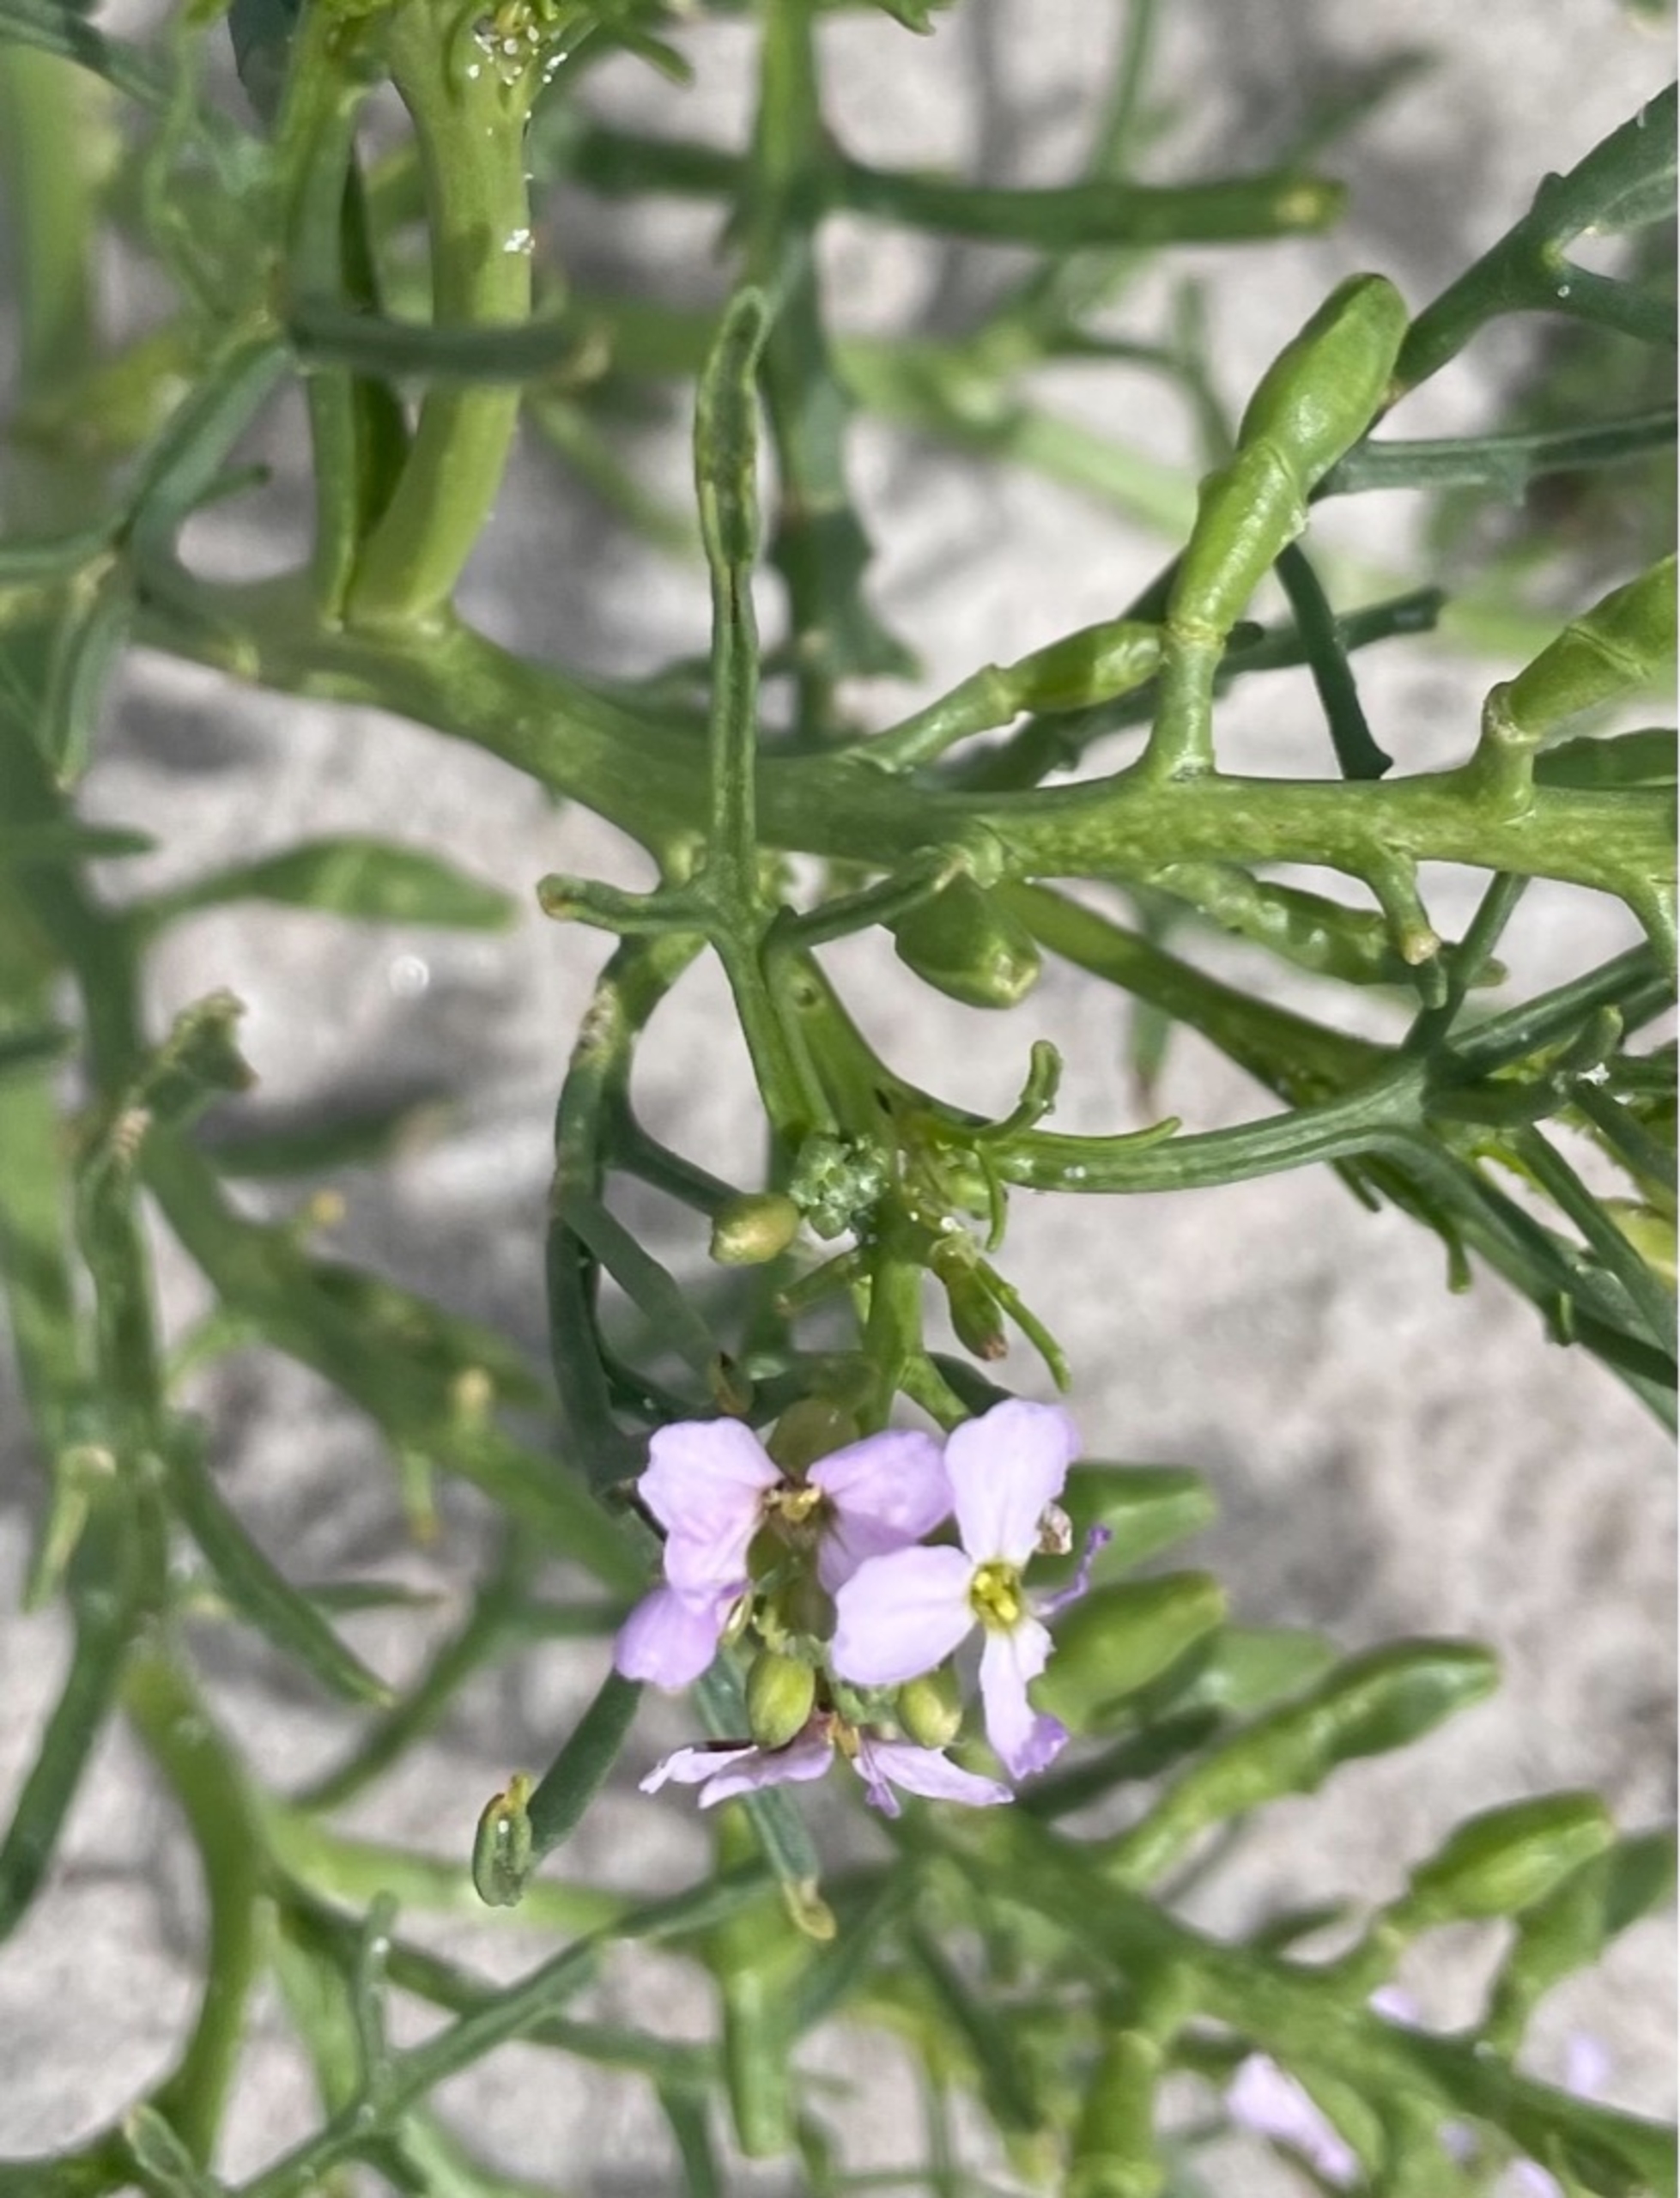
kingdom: Plantae
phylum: Tracheophyta
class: Magnoliopsida
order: Brassicales
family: Brassicaceae
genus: Cakile
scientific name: Cakile maritima
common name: Østersø-strandsennep
